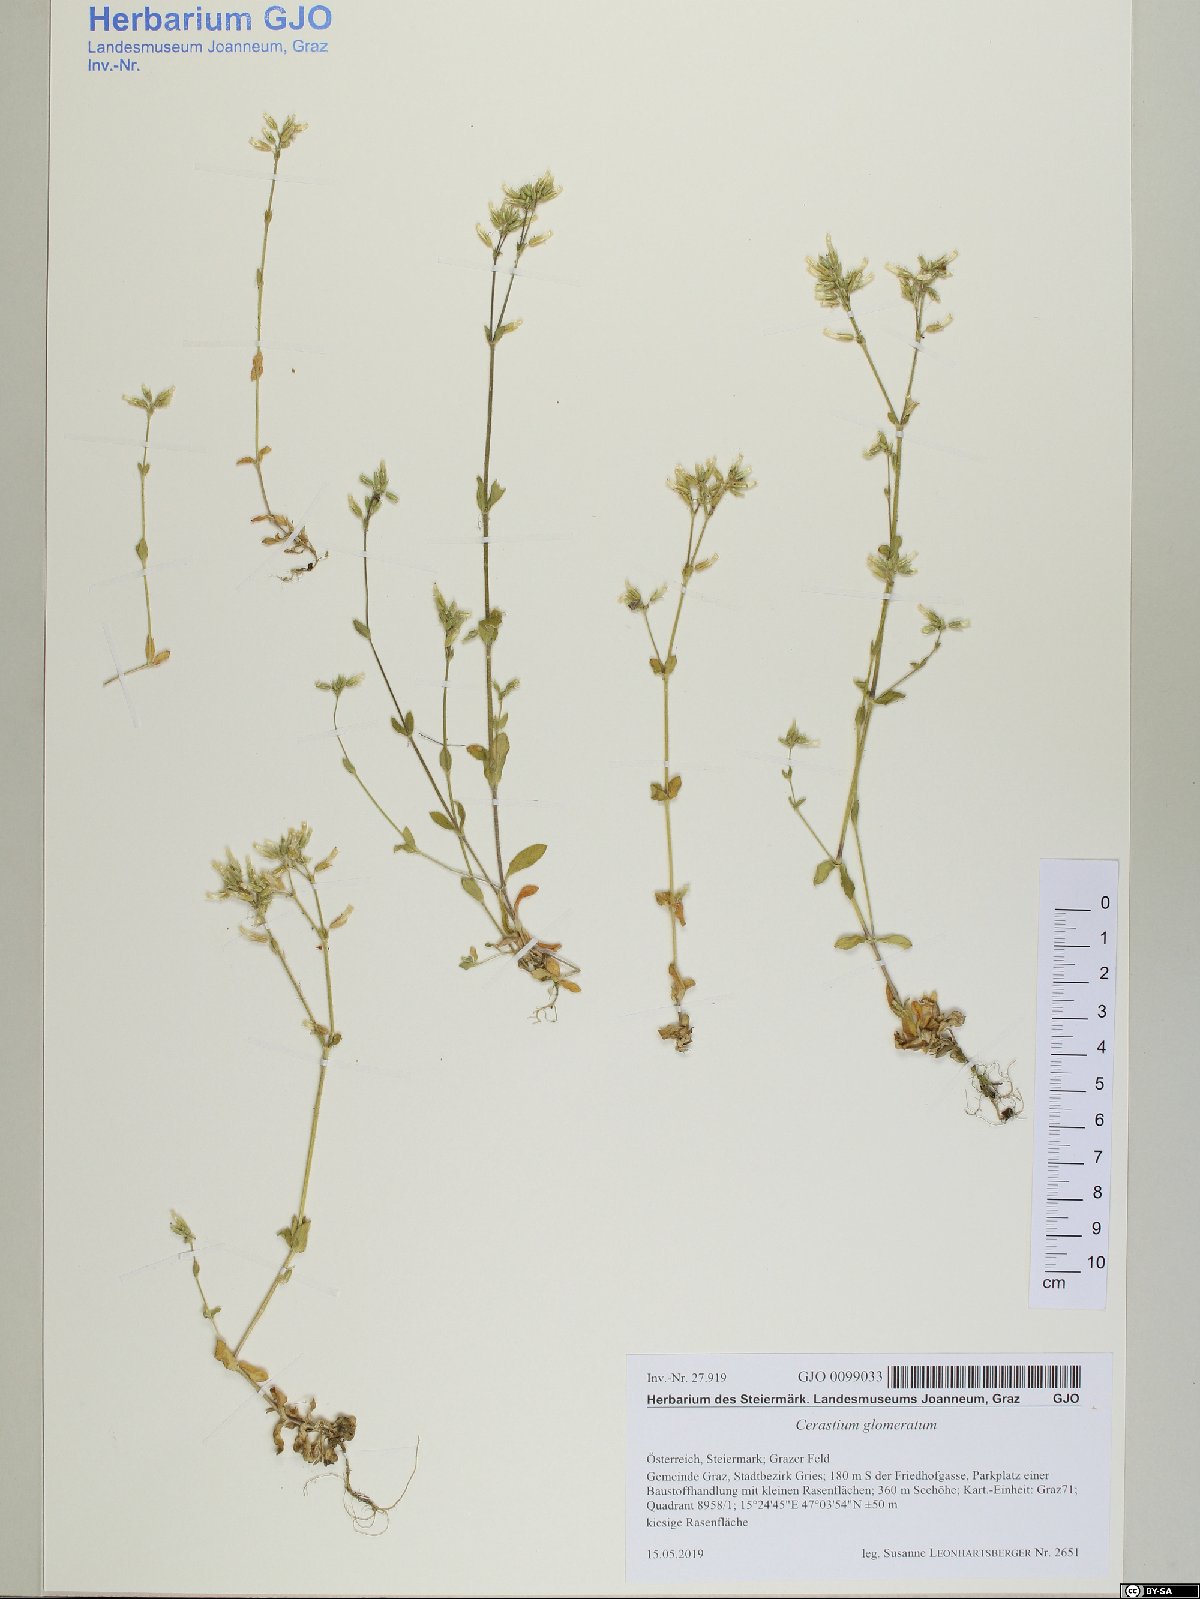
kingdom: Plantae
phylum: Tracheophyta
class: Magnoliopsida
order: Caryophyllales
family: Caryophyllaceae
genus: Cerastium
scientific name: Cerastium glomeratum
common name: Sticky chickweed
